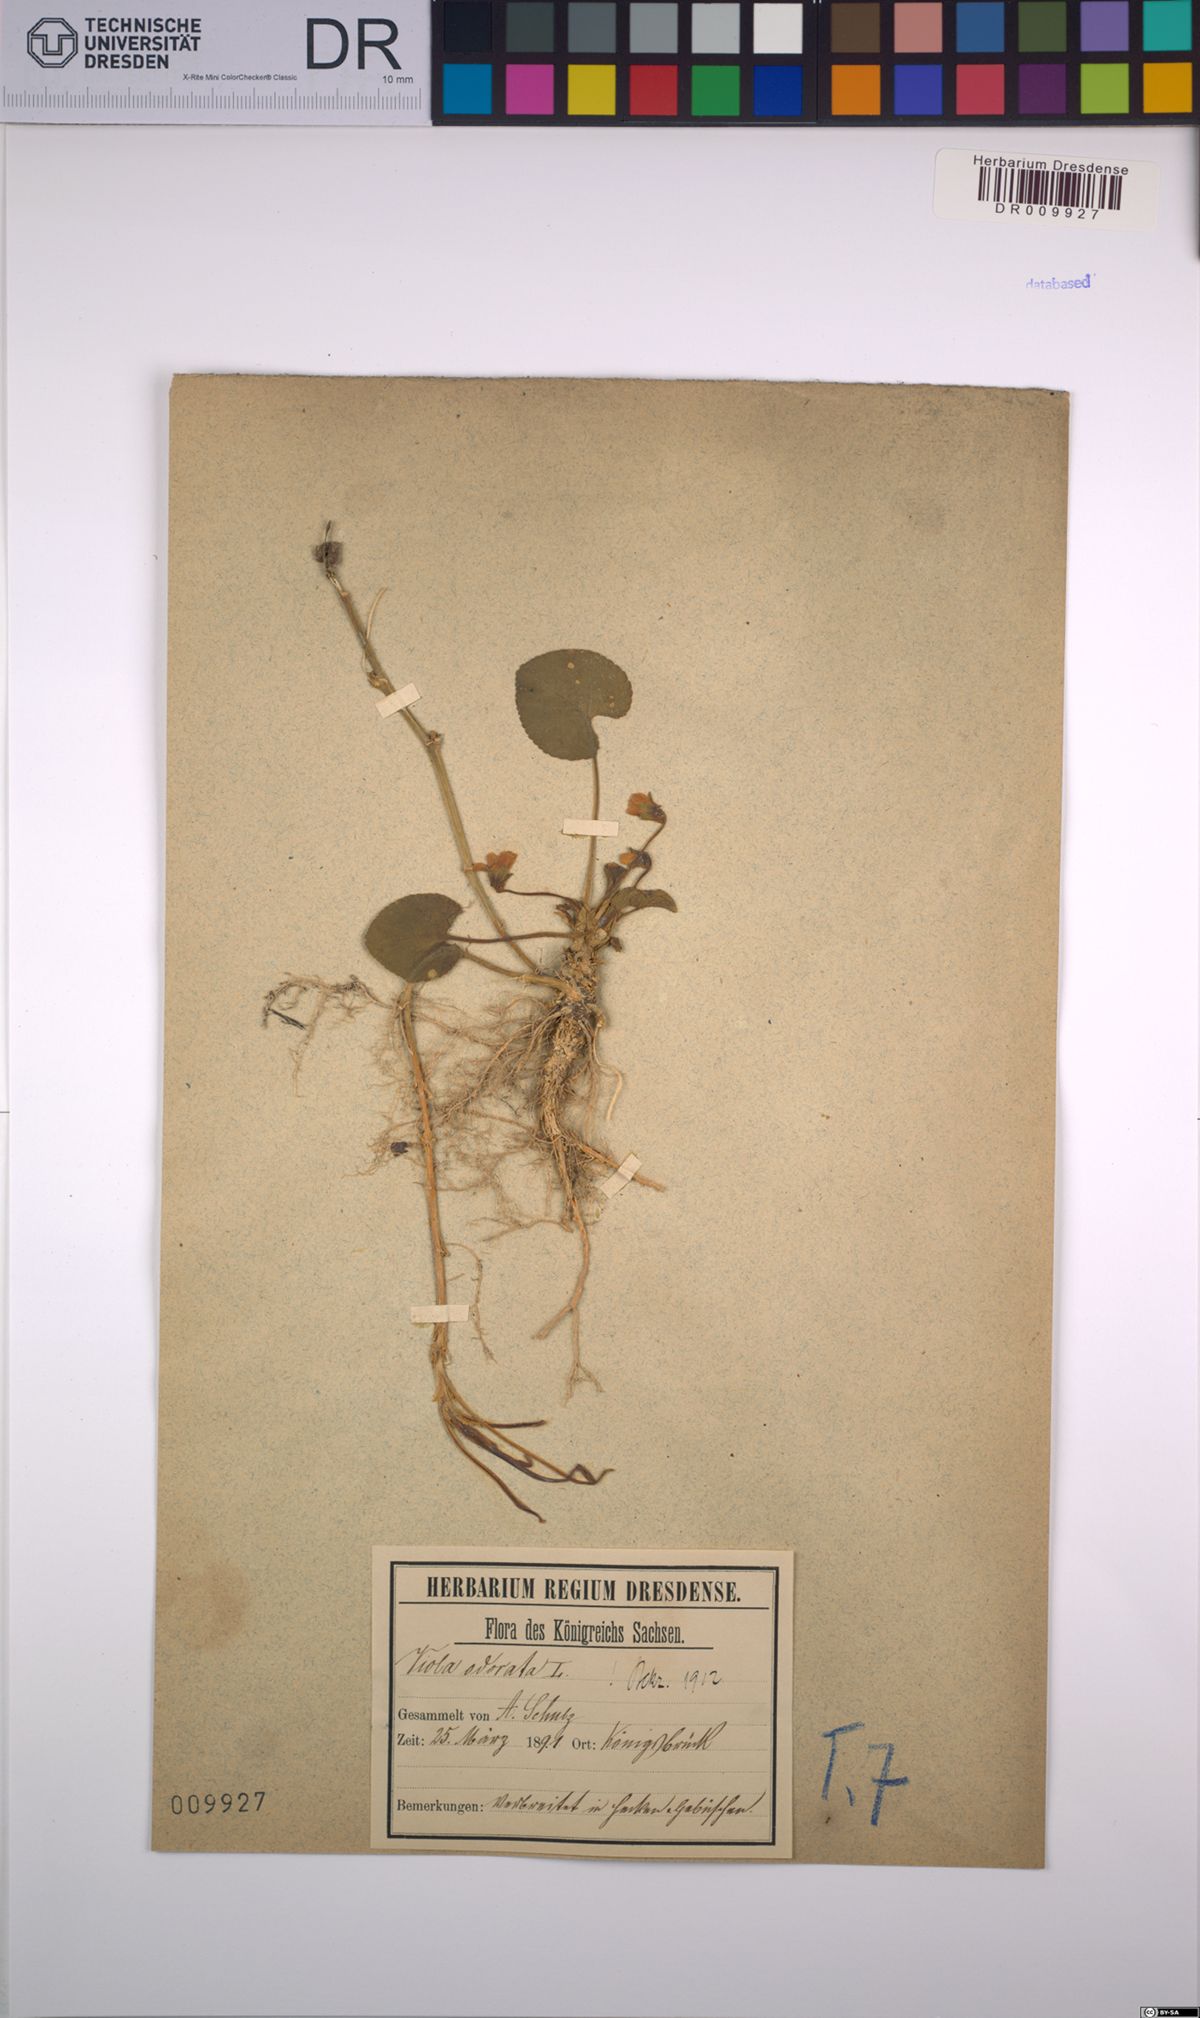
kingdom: Plantae
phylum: Tracheophyta
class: Magnoliopsida
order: Malpighiales
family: Violaceae
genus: Viola
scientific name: Viola odorata
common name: Sweet violet
